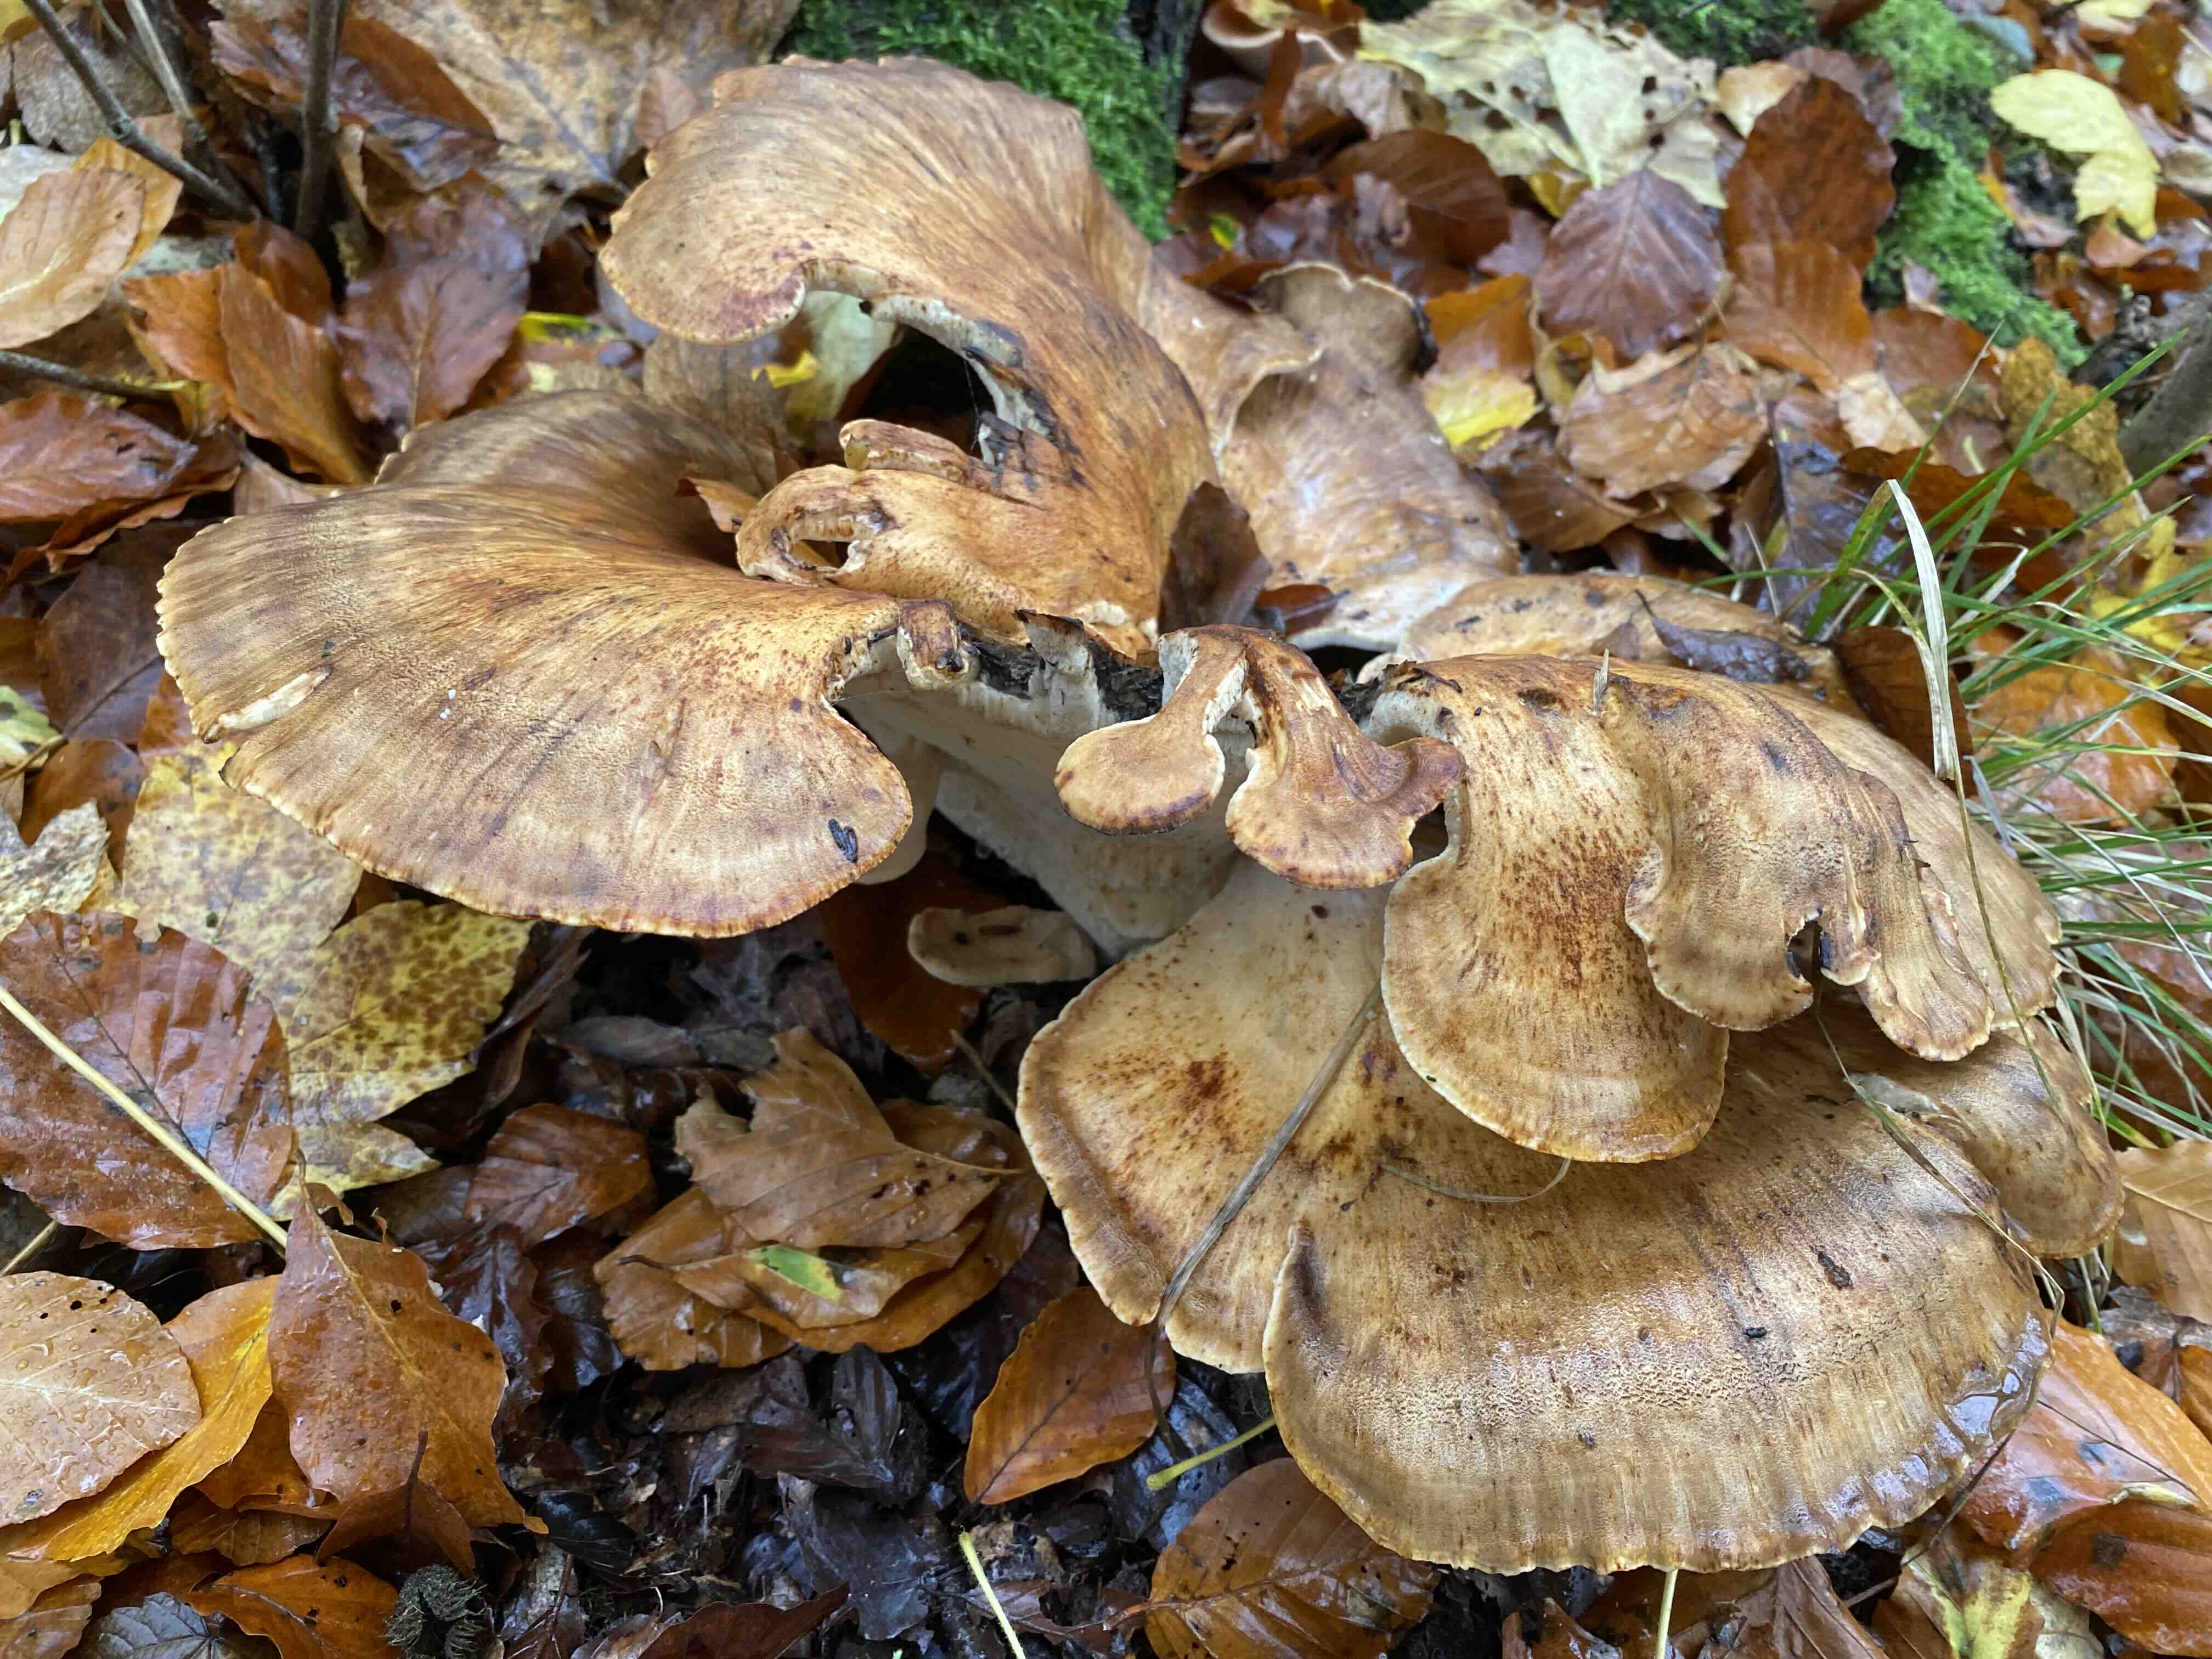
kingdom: Fungi
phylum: Basidiomycota
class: Agaricomycetes
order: Polyporales
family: Meripilaceae
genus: Meripilus
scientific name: Meripilus giganteus
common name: kæmpeporesvamp
